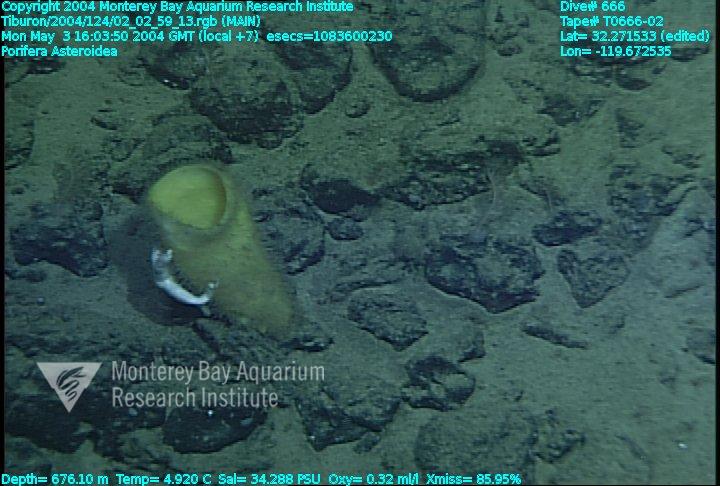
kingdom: Animalia
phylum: Porifera
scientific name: Porifera
